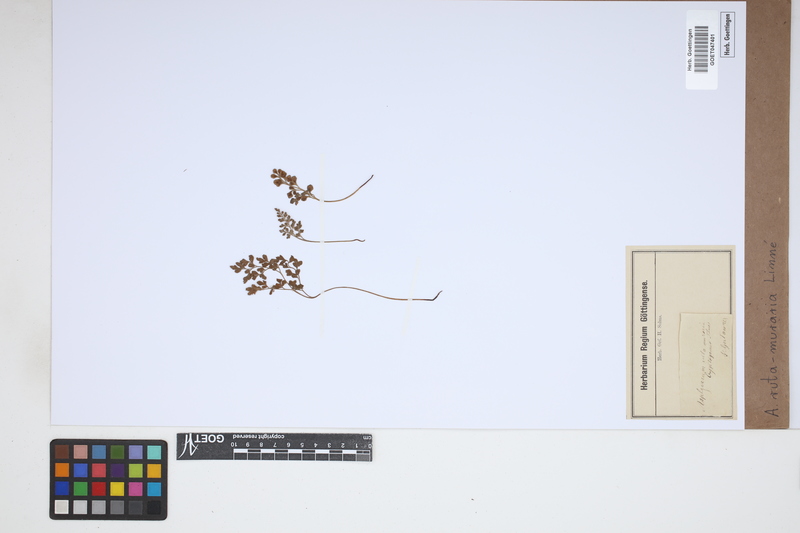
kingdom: Plantae
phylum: Tracheophyta
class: Polypodiopsida
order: Polypodiales
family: Aspleniaceae
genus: Asplenium
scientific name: Asplenium ruta-muraria
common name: Wall-rue
